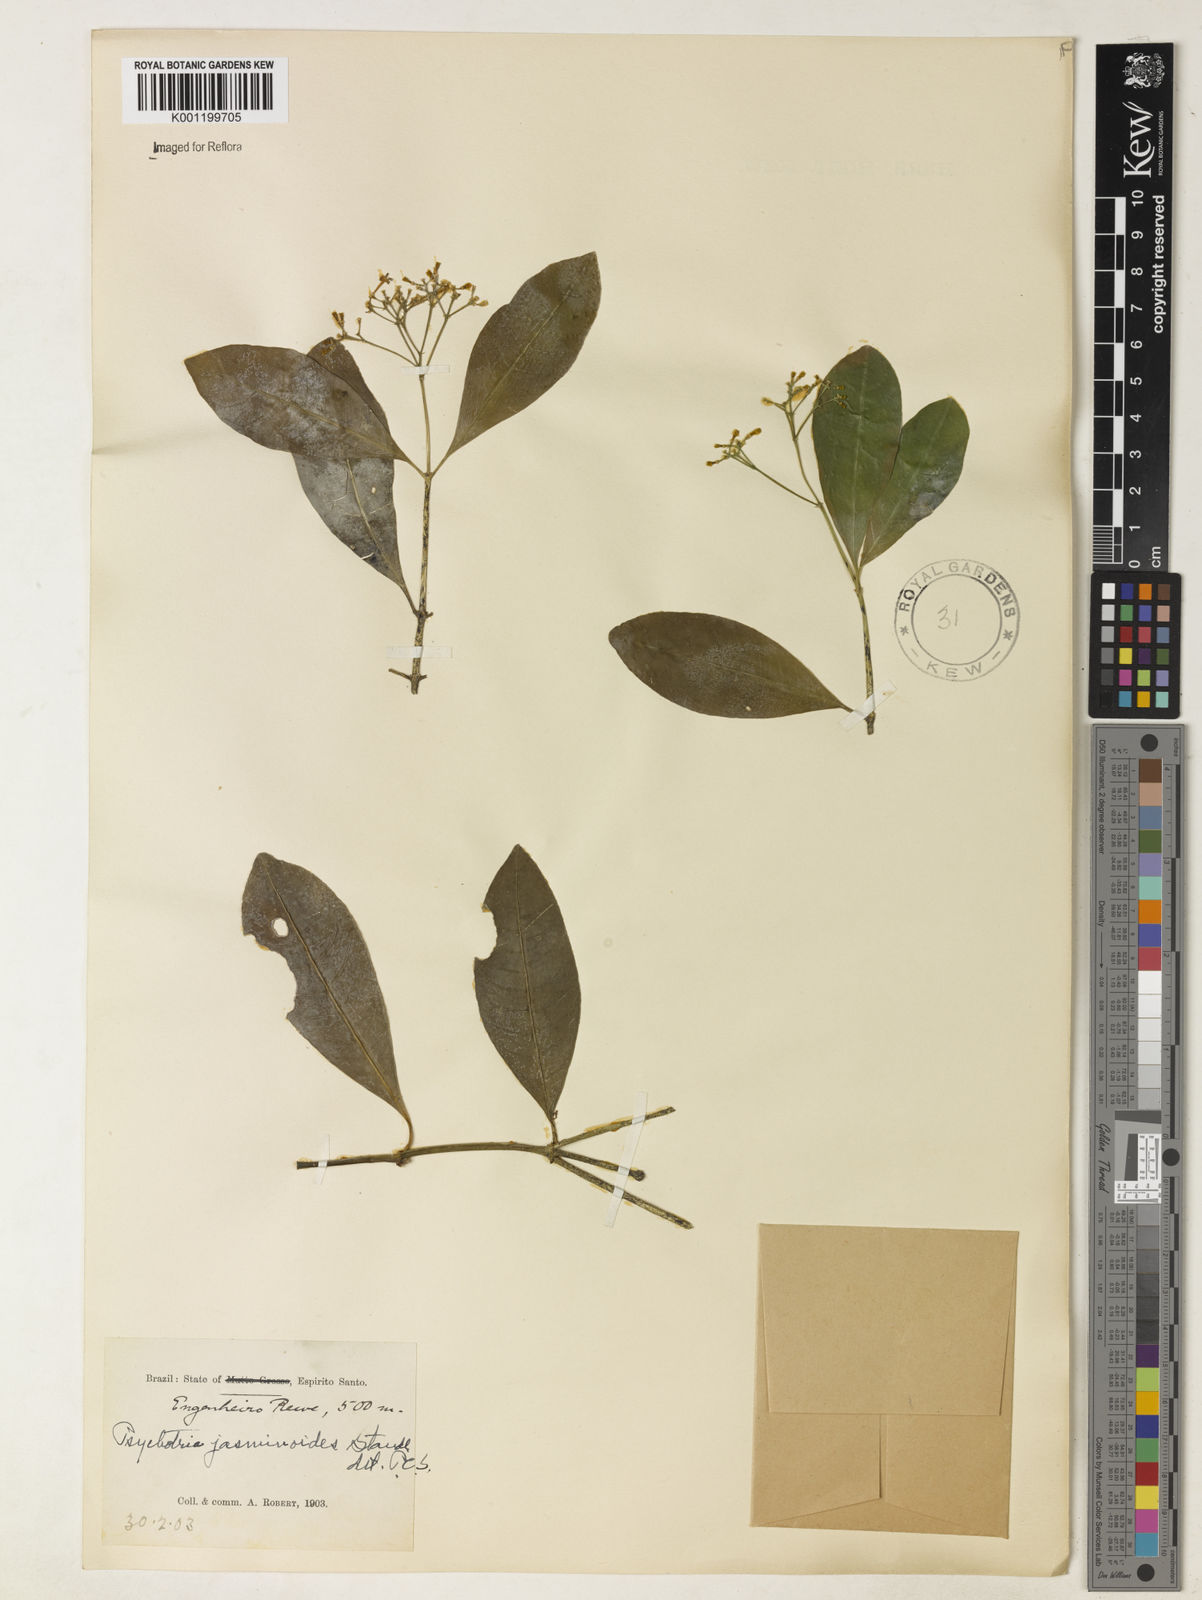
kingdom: Plantae
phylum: Tracheophyta
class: Magnoliopsida
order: Gentianales
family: Rubiaceae
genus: Psychotria
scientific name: Psychotria jasminoides
